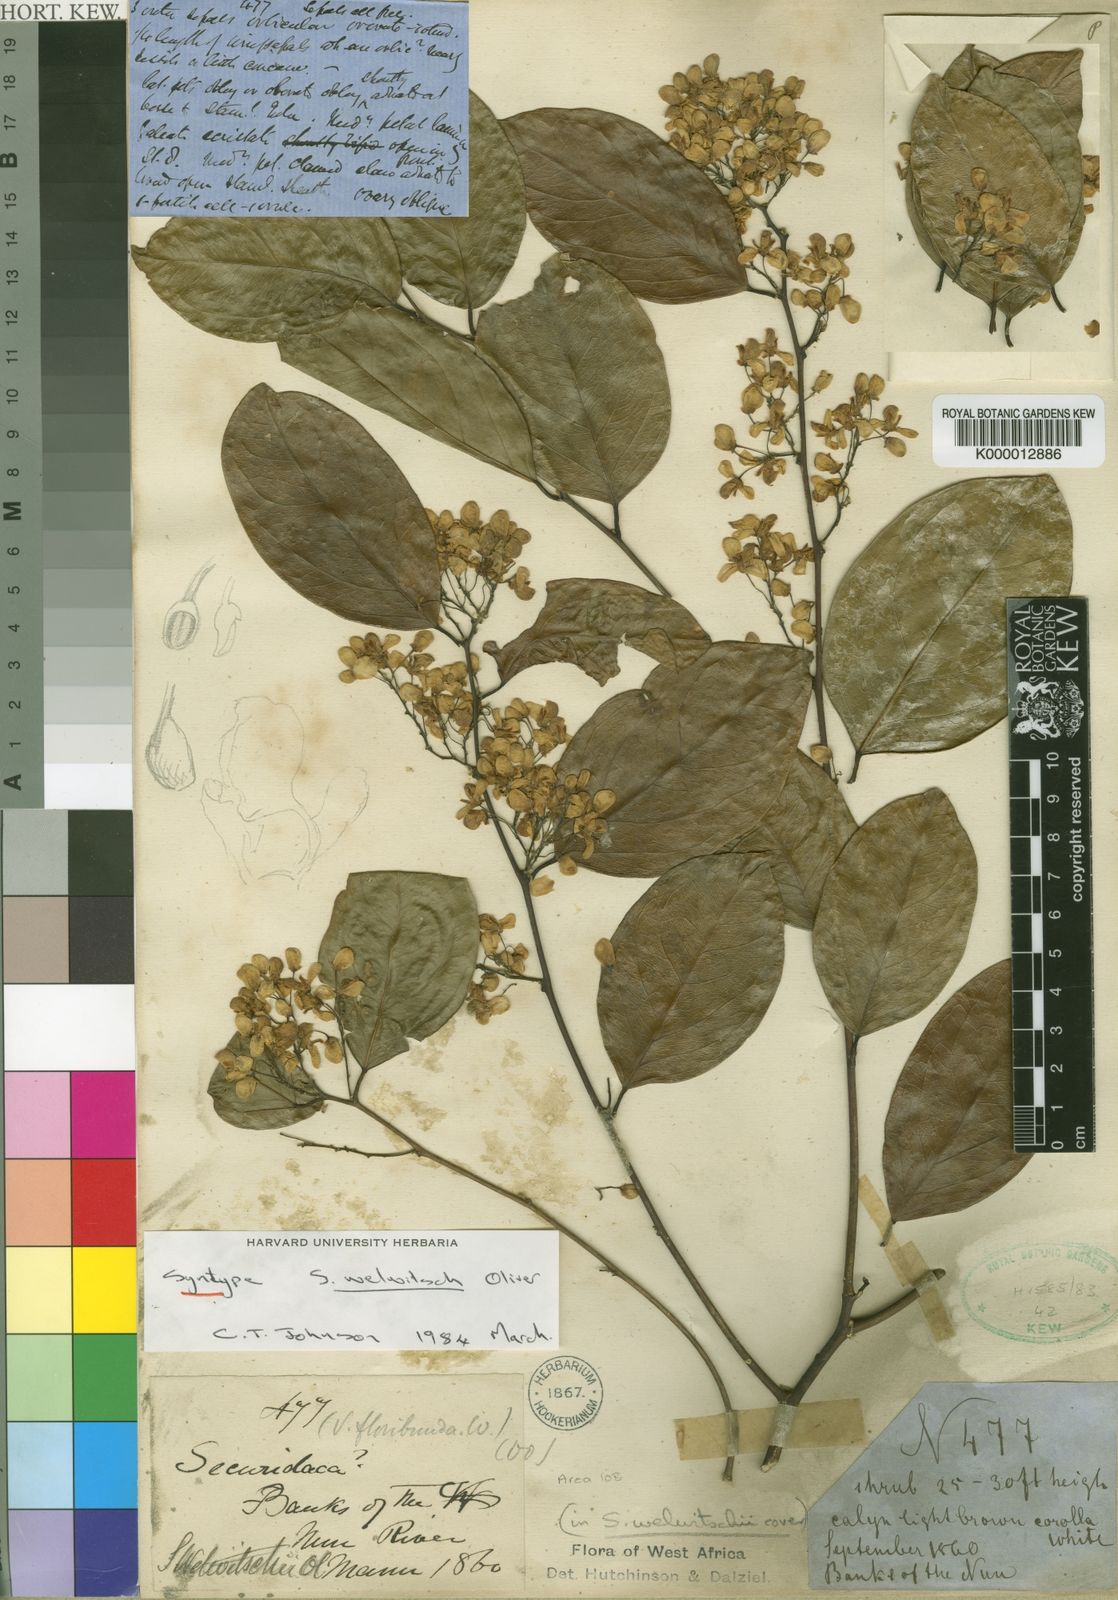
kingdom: Plantae
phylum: Tracheophyta
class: Magnoliopsida
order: Fabales
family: Polygalaceae
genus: Securidaca
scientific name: Securidaca welwitschii
